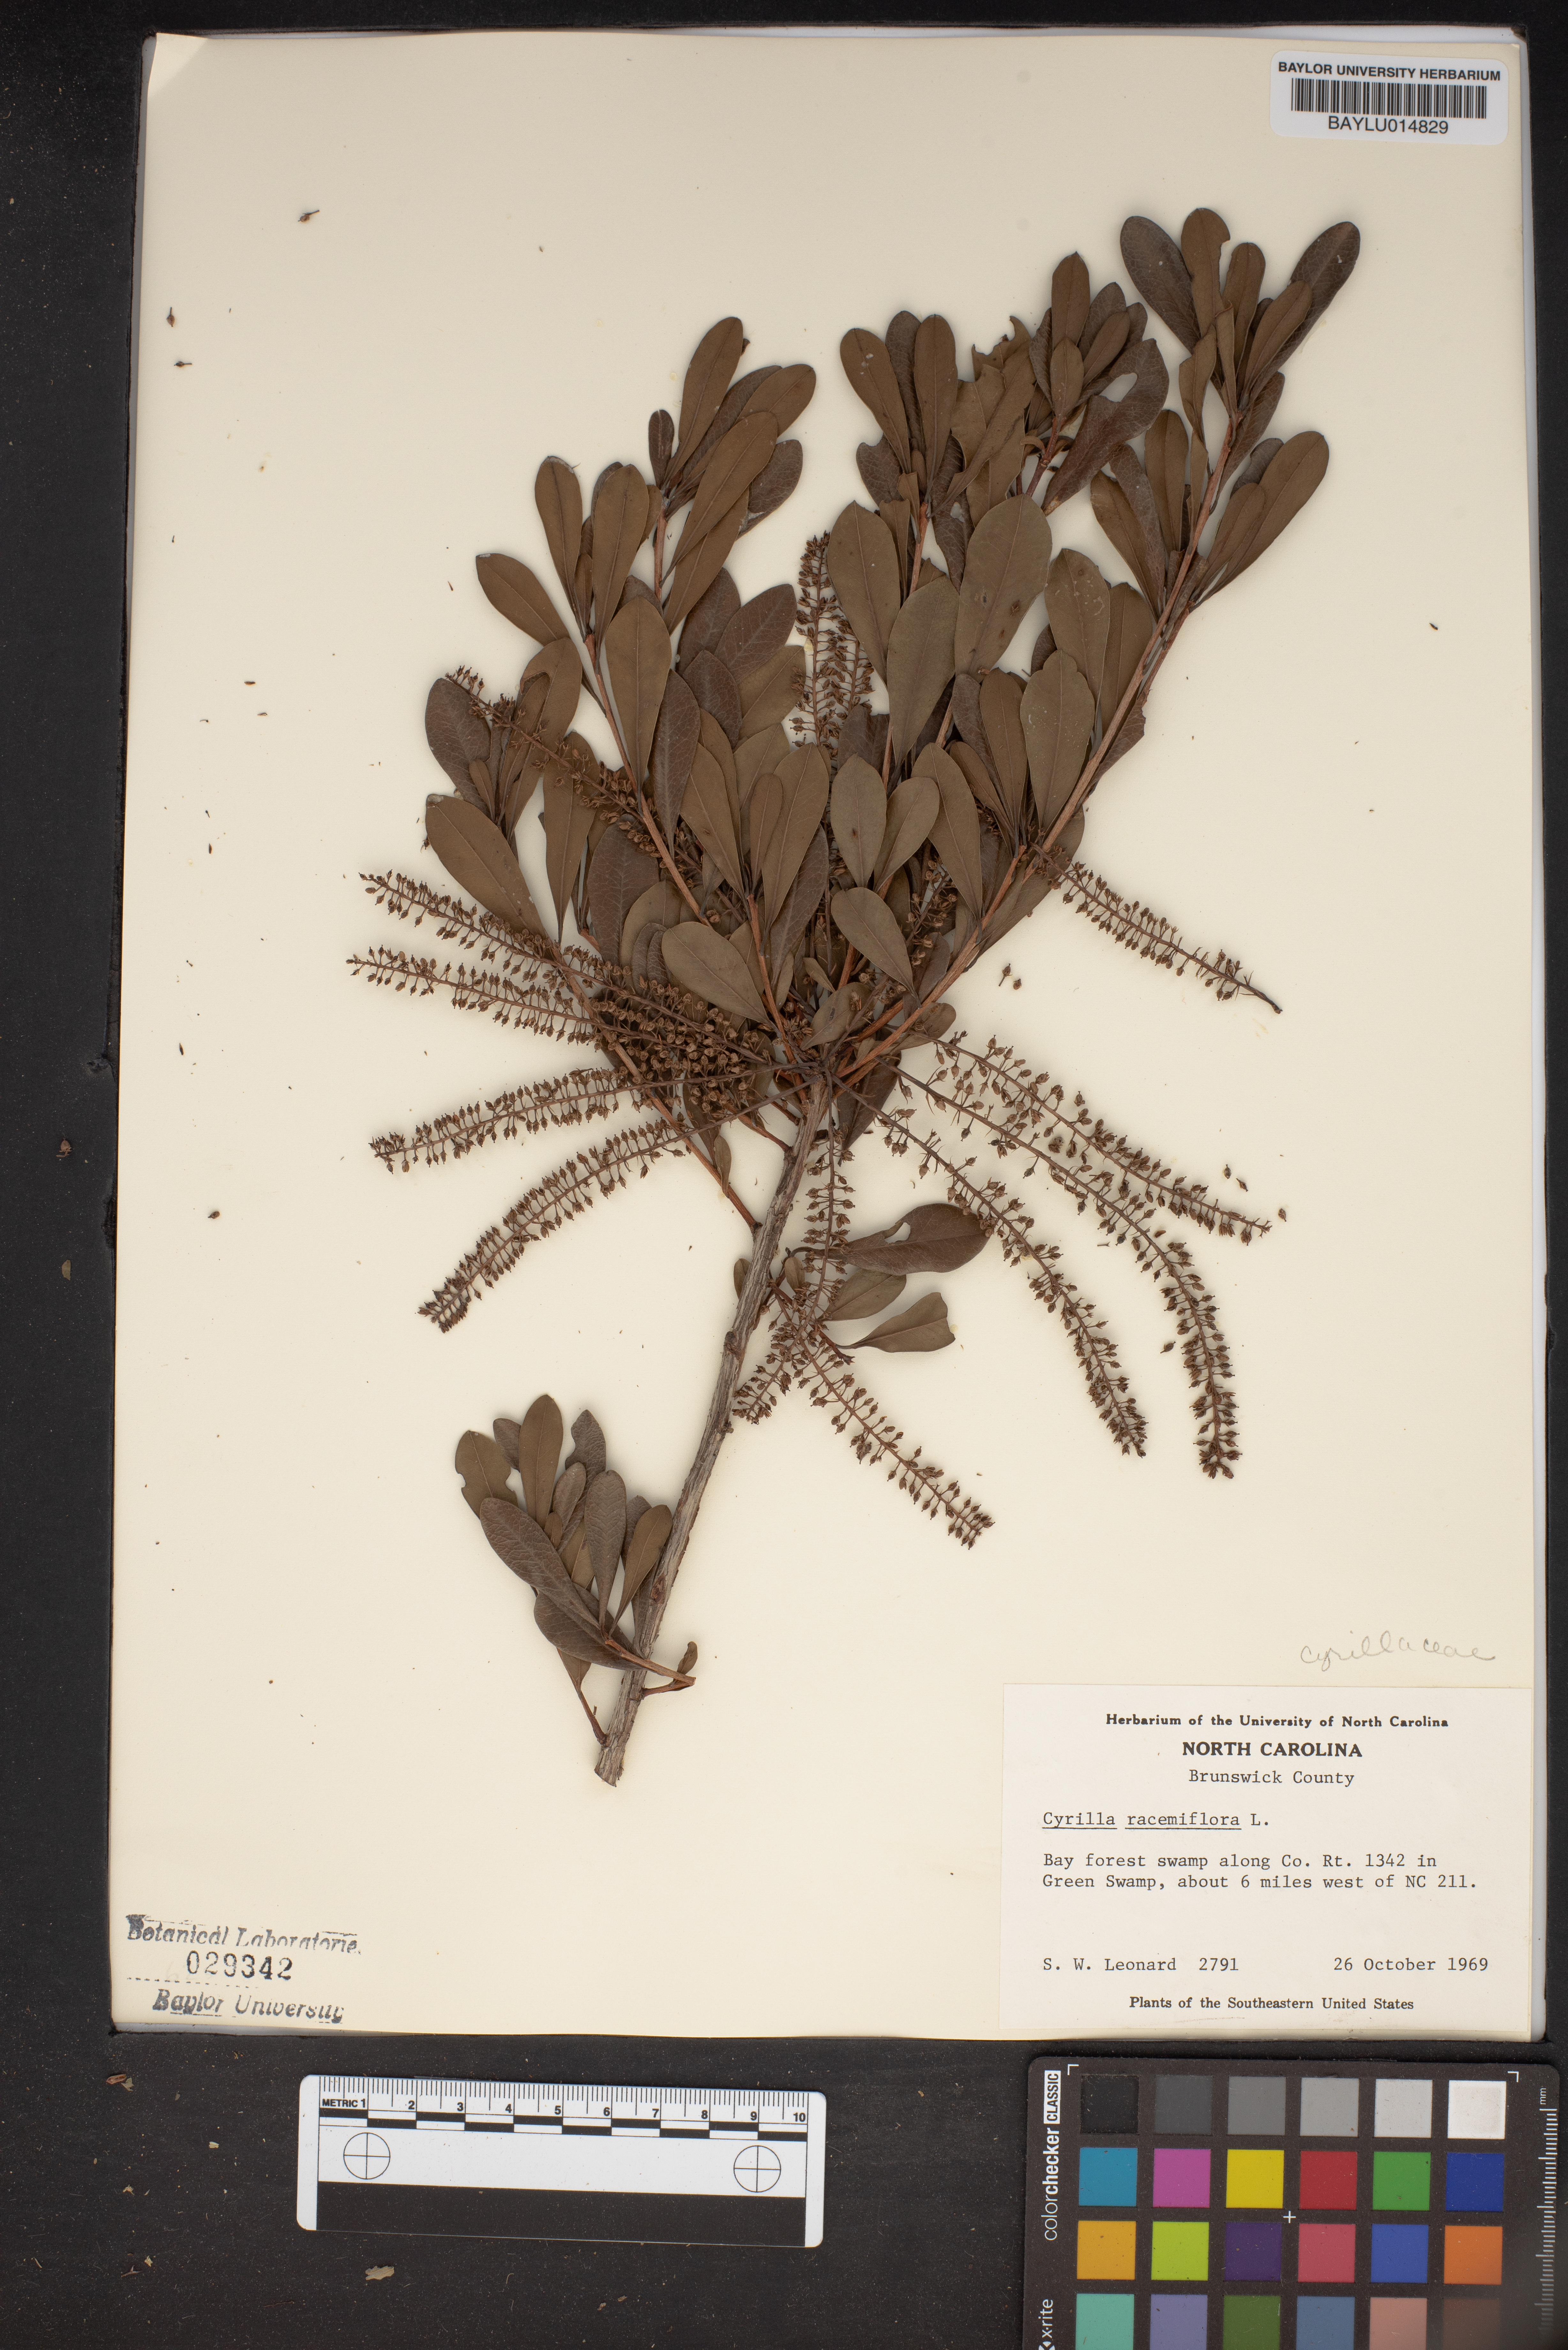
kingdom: Plantae
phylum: Tracheophyta
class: Magnoliopsida
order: Ericales
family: Cyrillaceae
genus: Cyrilla
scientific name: Cyrilla racemiflora
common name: Black titi
